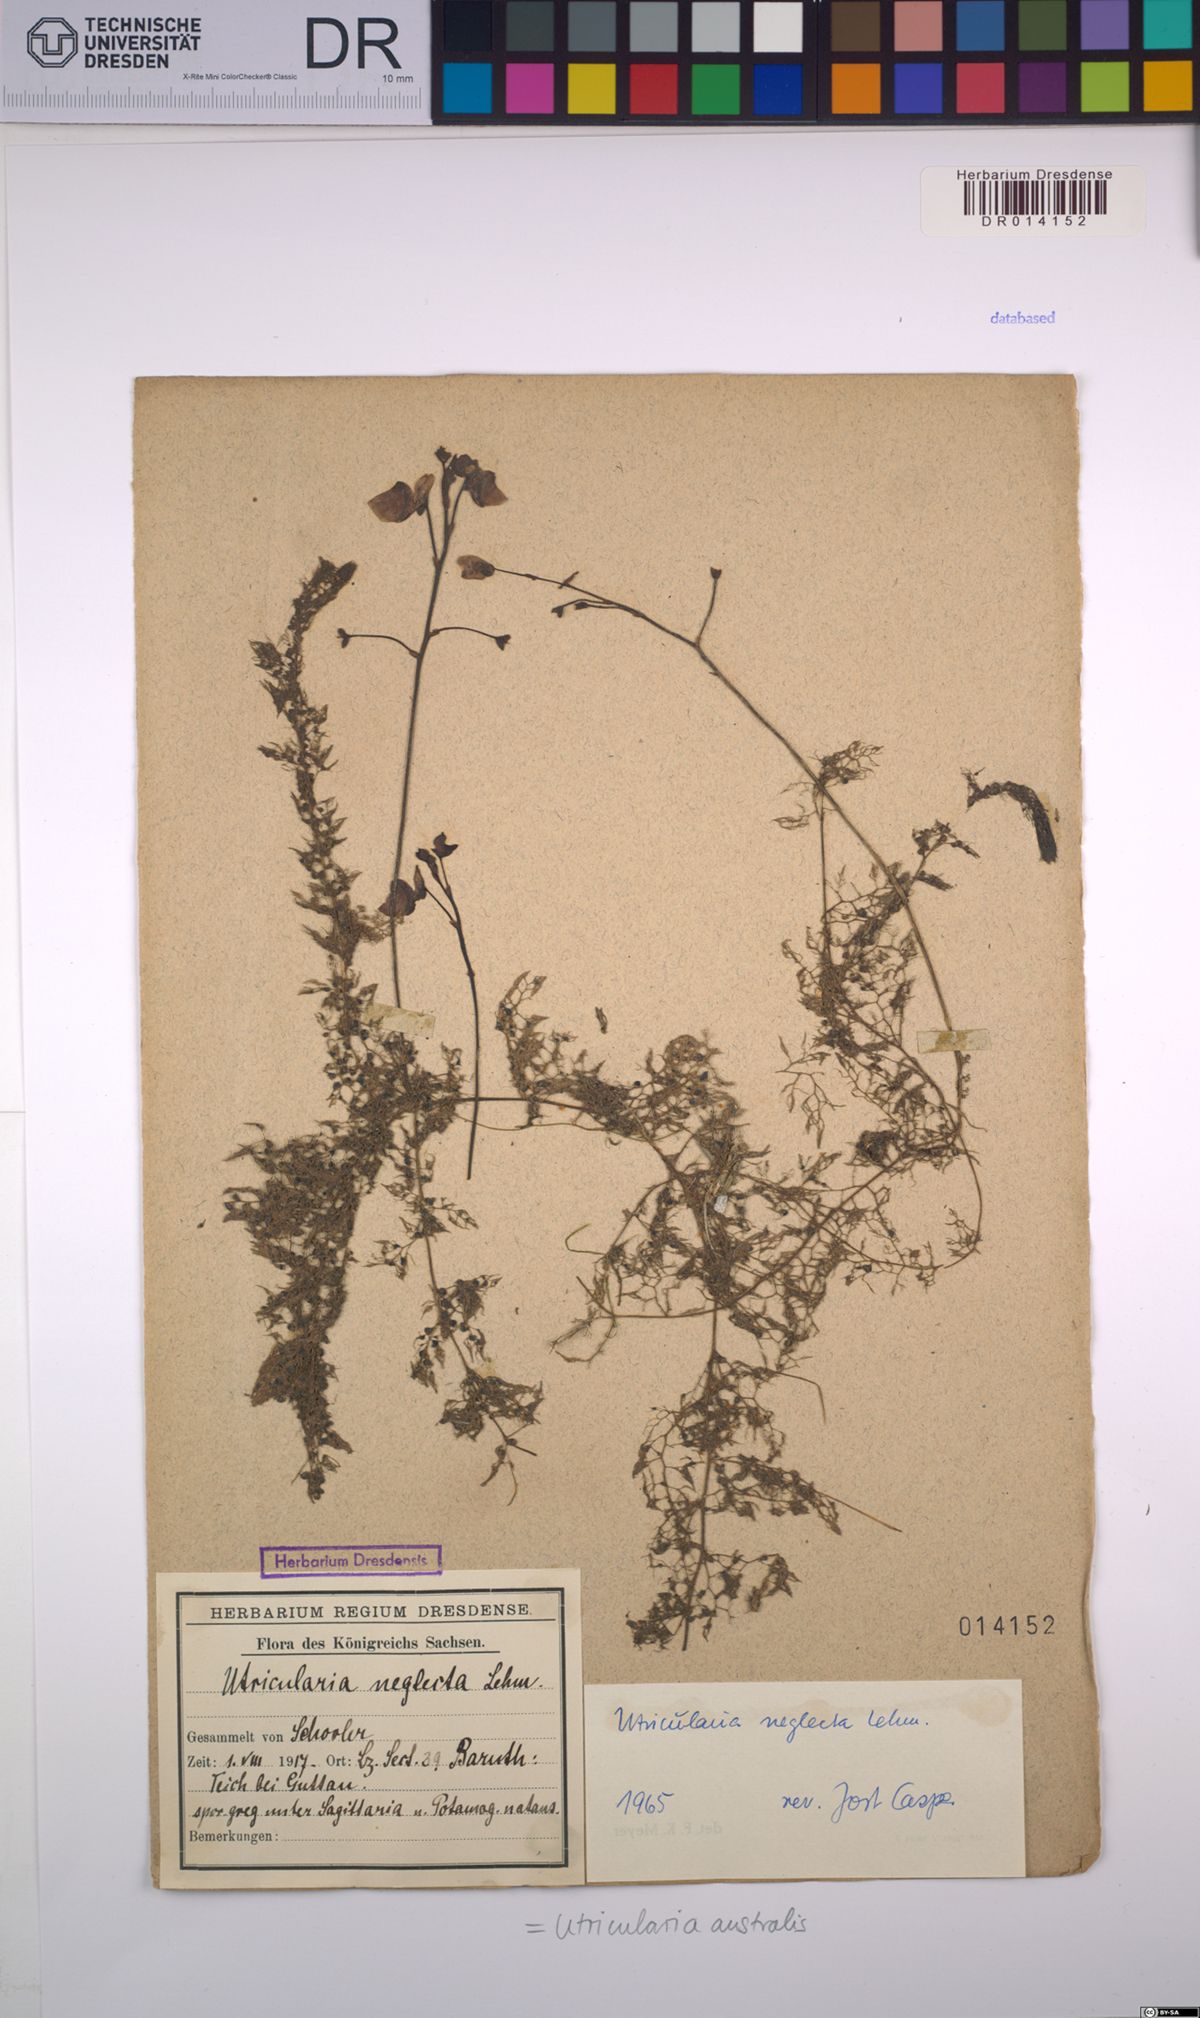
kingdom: Plantae
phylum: Tracheophyta
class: Magnoliopsida
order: Lamiales
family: Lentibulariaceae
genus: Utricularia
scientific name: Utricularia australis
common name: Bladderwort
